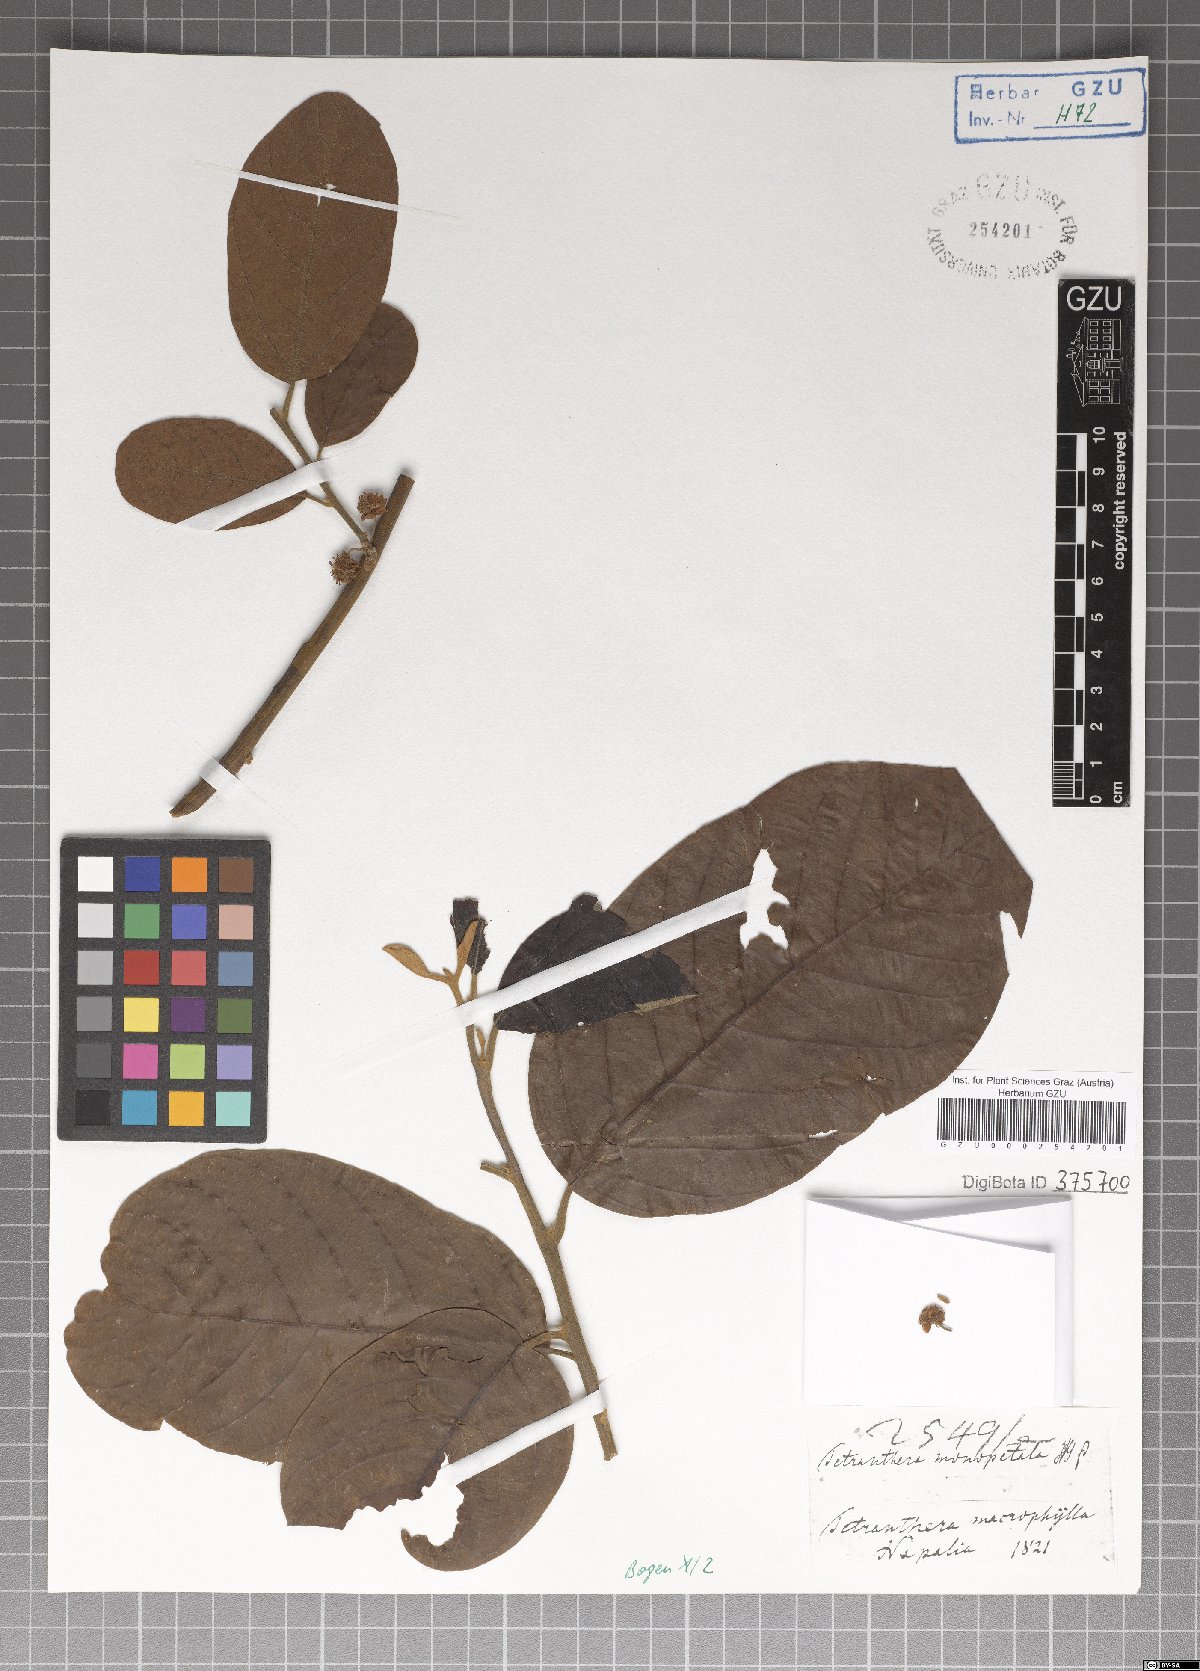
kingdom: Plantae
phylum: Tracheophyta
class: Magnoliopsida
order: Laurales
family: Lauraceae
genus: Litsea
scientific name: Litsea monopetala
